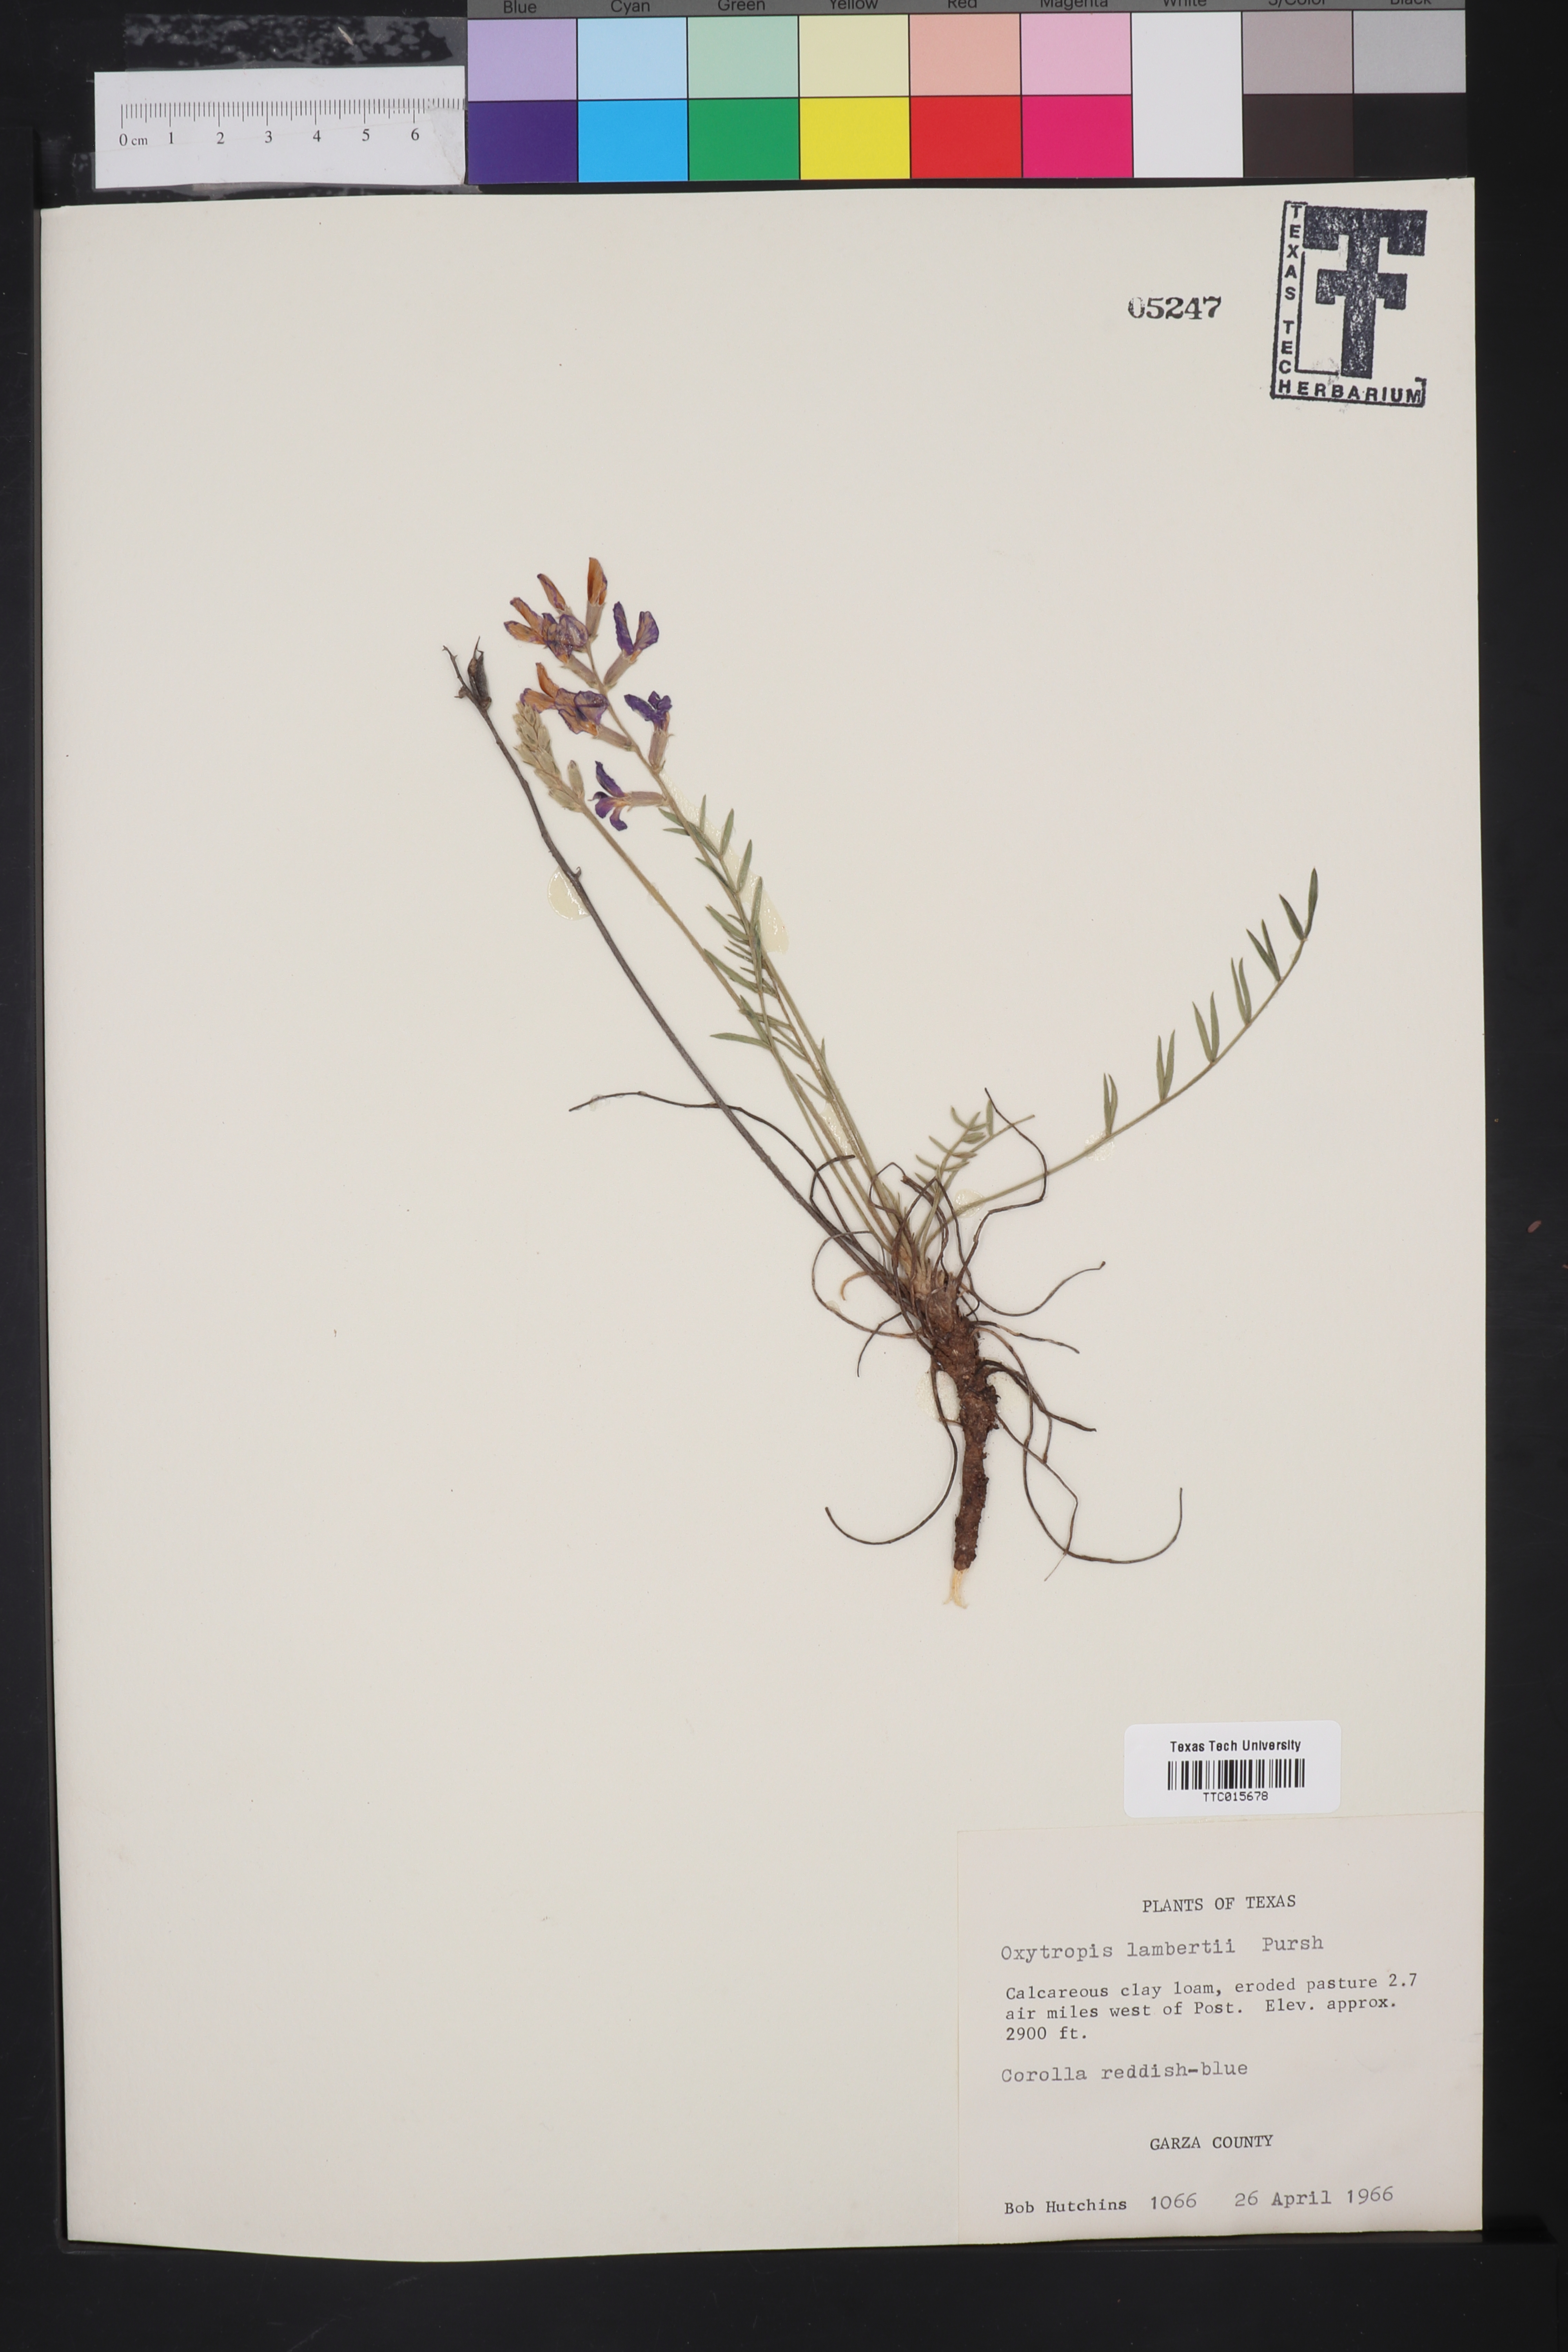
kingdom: Plantae
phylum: Tracheophyta
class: Magnoliopsida
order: Fabales
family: Fabaceae
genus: Oxytropis
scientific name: Oxytropis lambertii
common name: Purple locoweed
